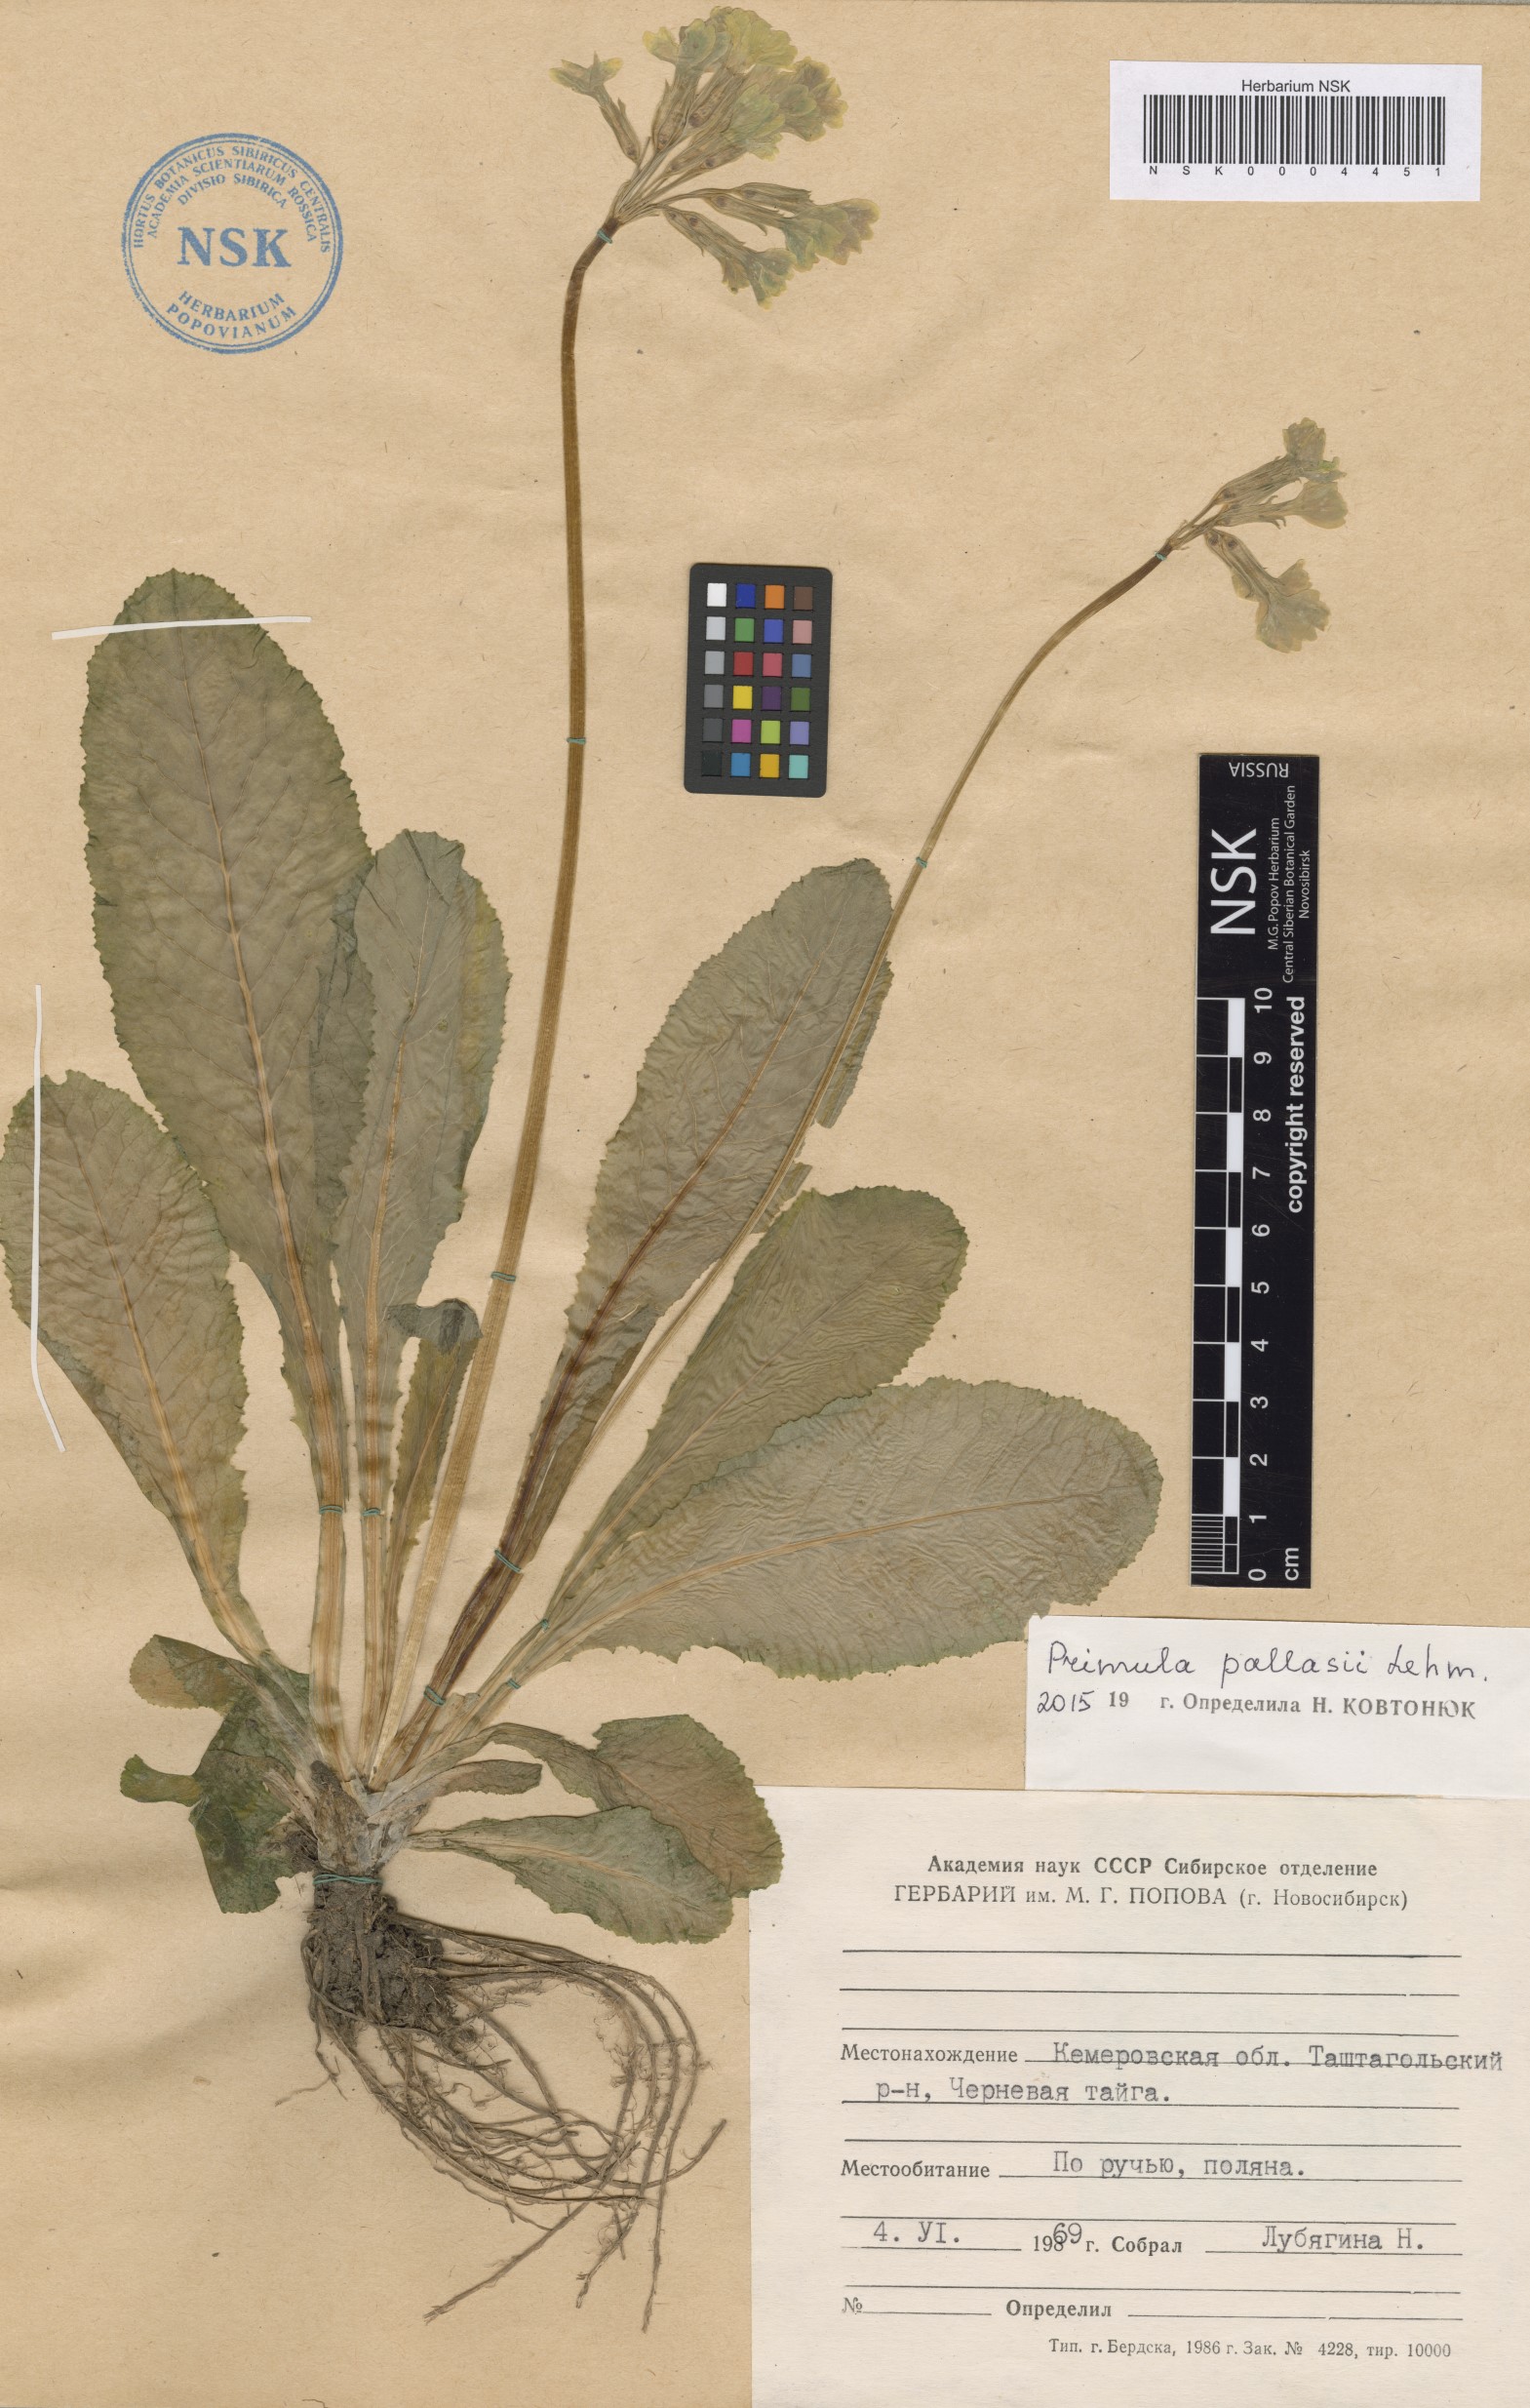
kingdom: Plantae
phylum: Tracheophyta
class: Magnoliopsida
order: Ericales
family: Primulaceae
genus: Primula
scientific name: Primula elatior
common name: Oxlip
